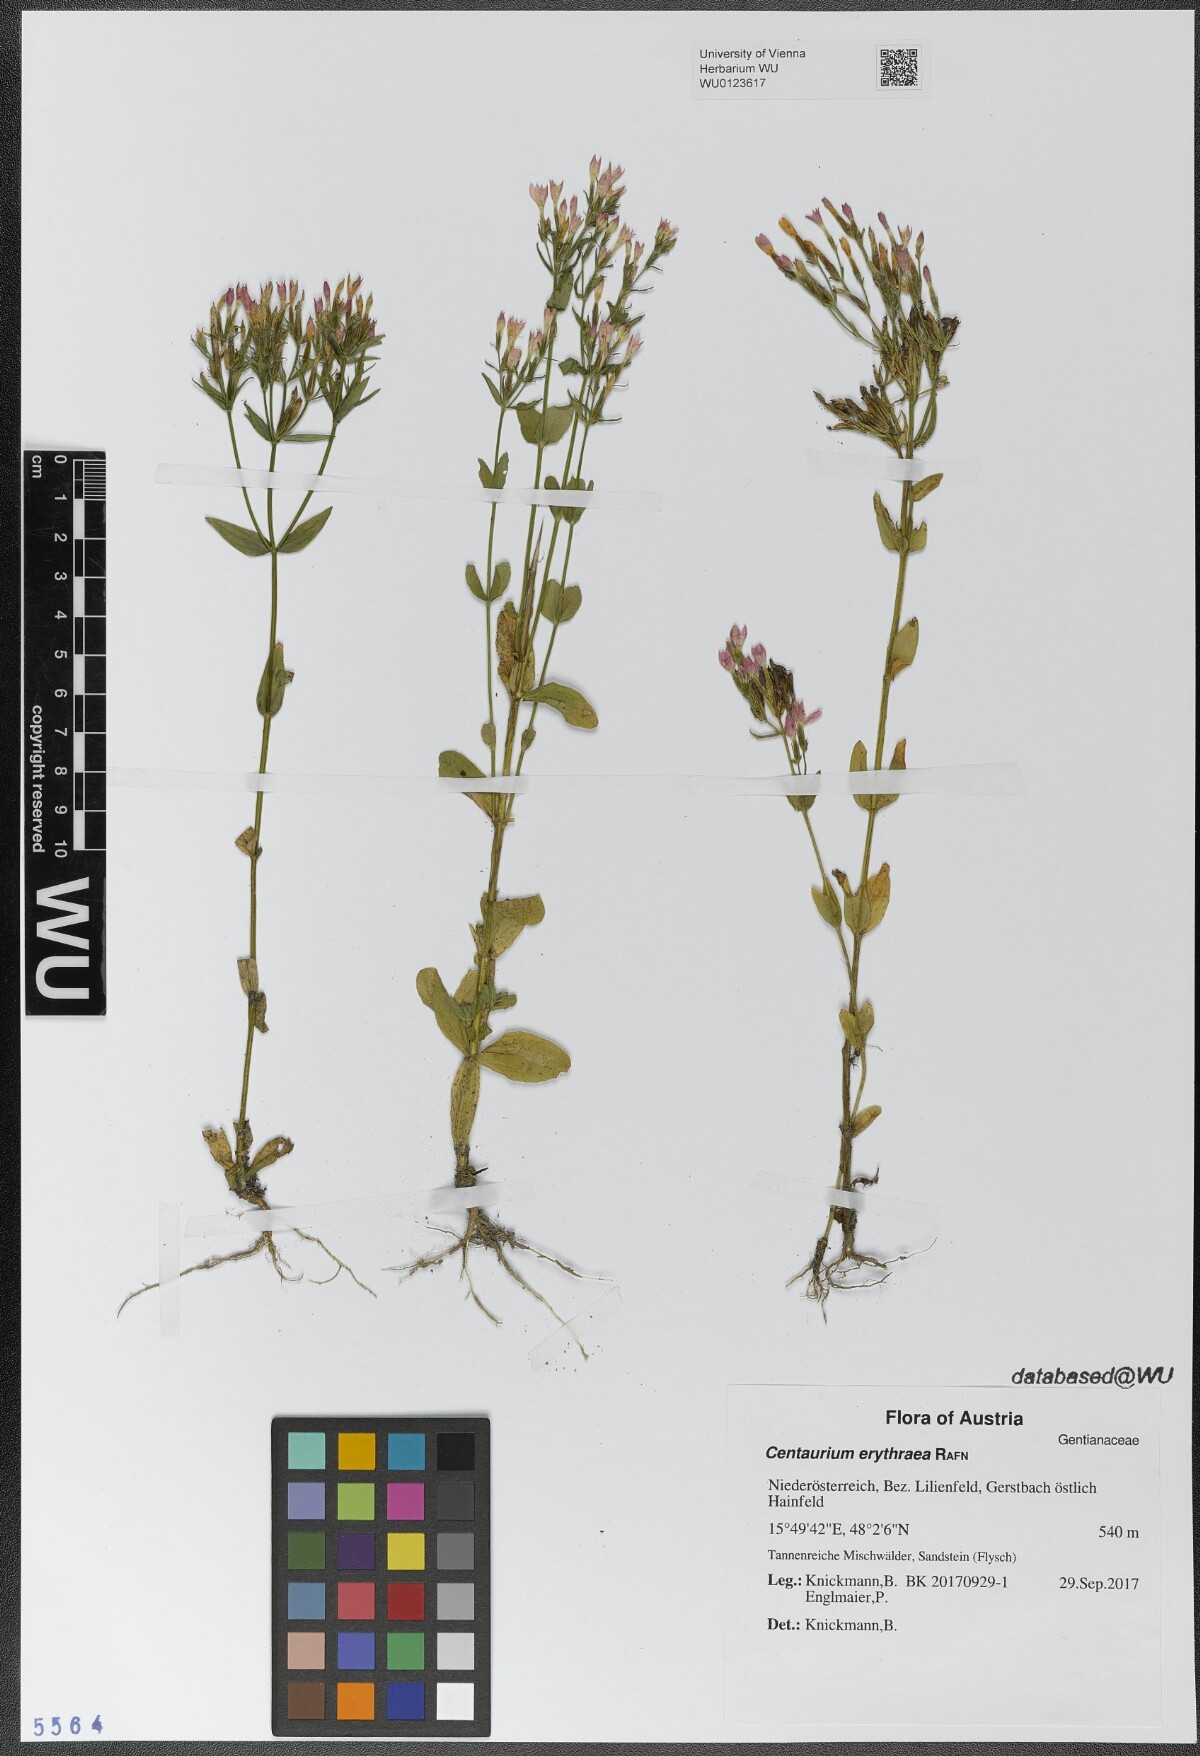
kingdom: Plantae
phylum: Tracheophyta
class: Magnoliopsida
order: Gentianales
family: Gentianaceae
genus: Centaurium
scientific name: Centaurium erythraea
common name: Common centaury
